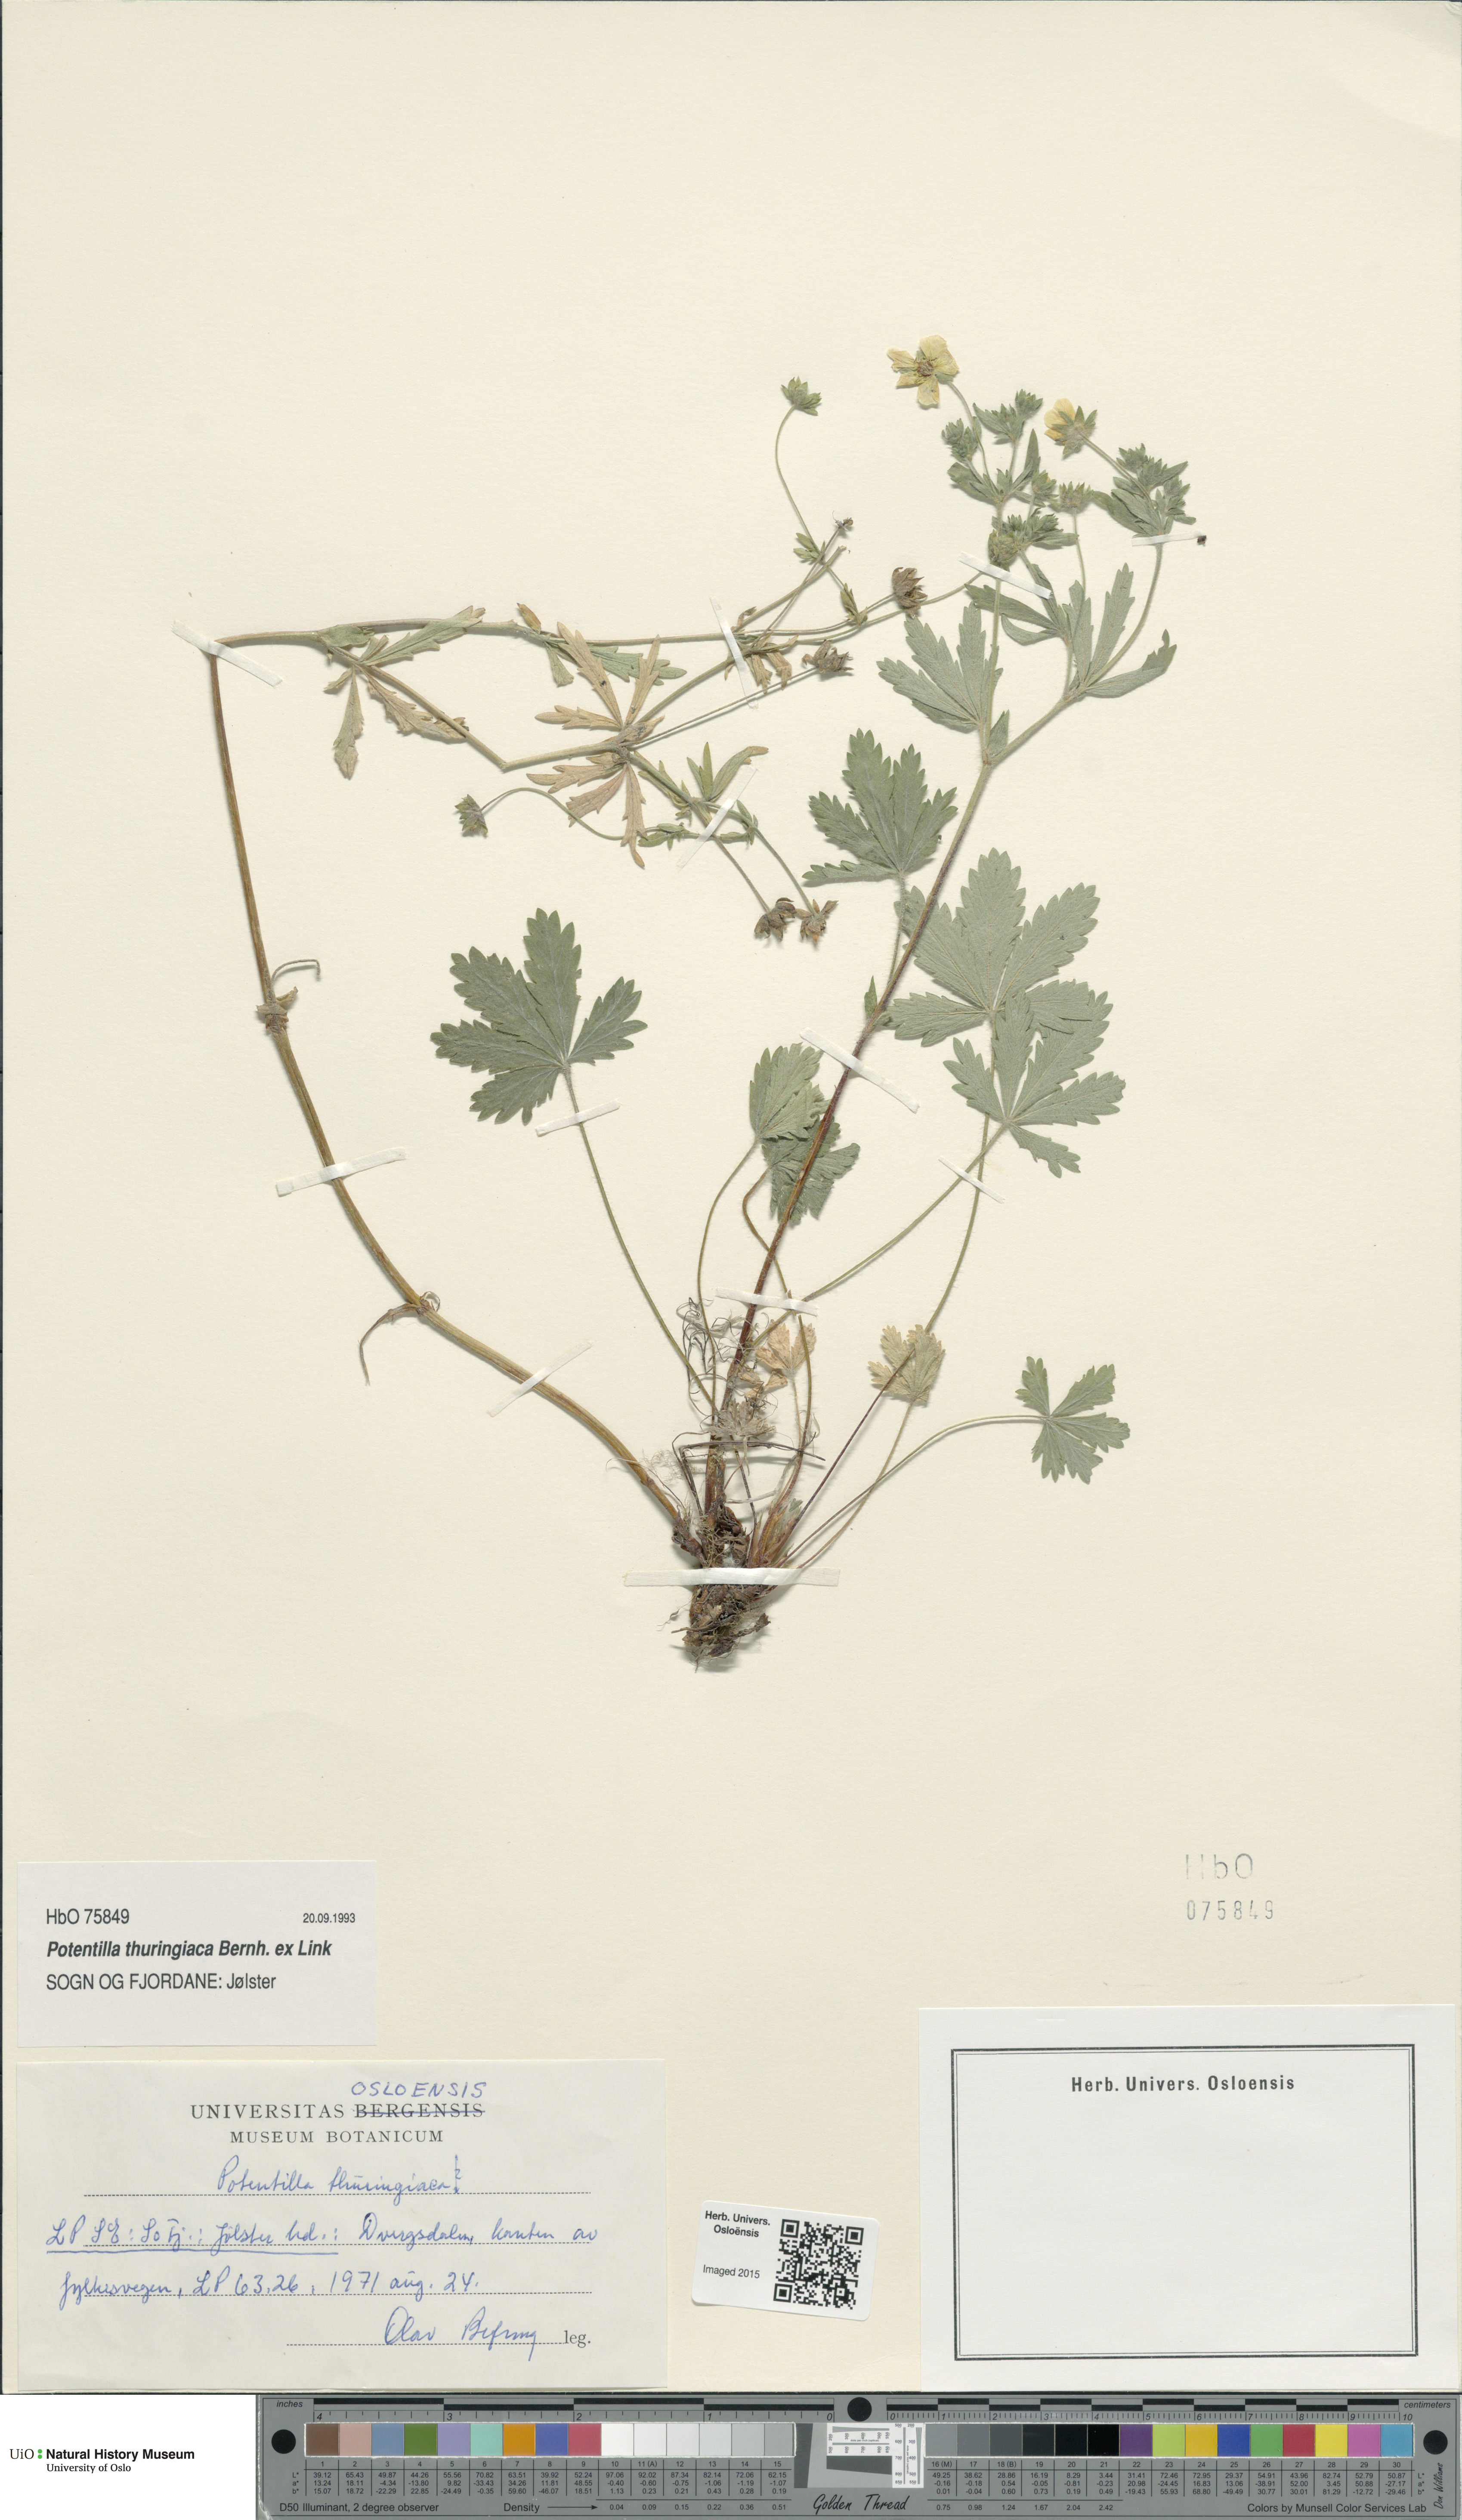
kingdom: Plantae
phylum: Tracheophyta
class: Magnoliopsida
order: Rosales
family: Rosaceae
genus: Potentilla
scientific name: Potentilla thuringiaca
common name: European cinquefoil
